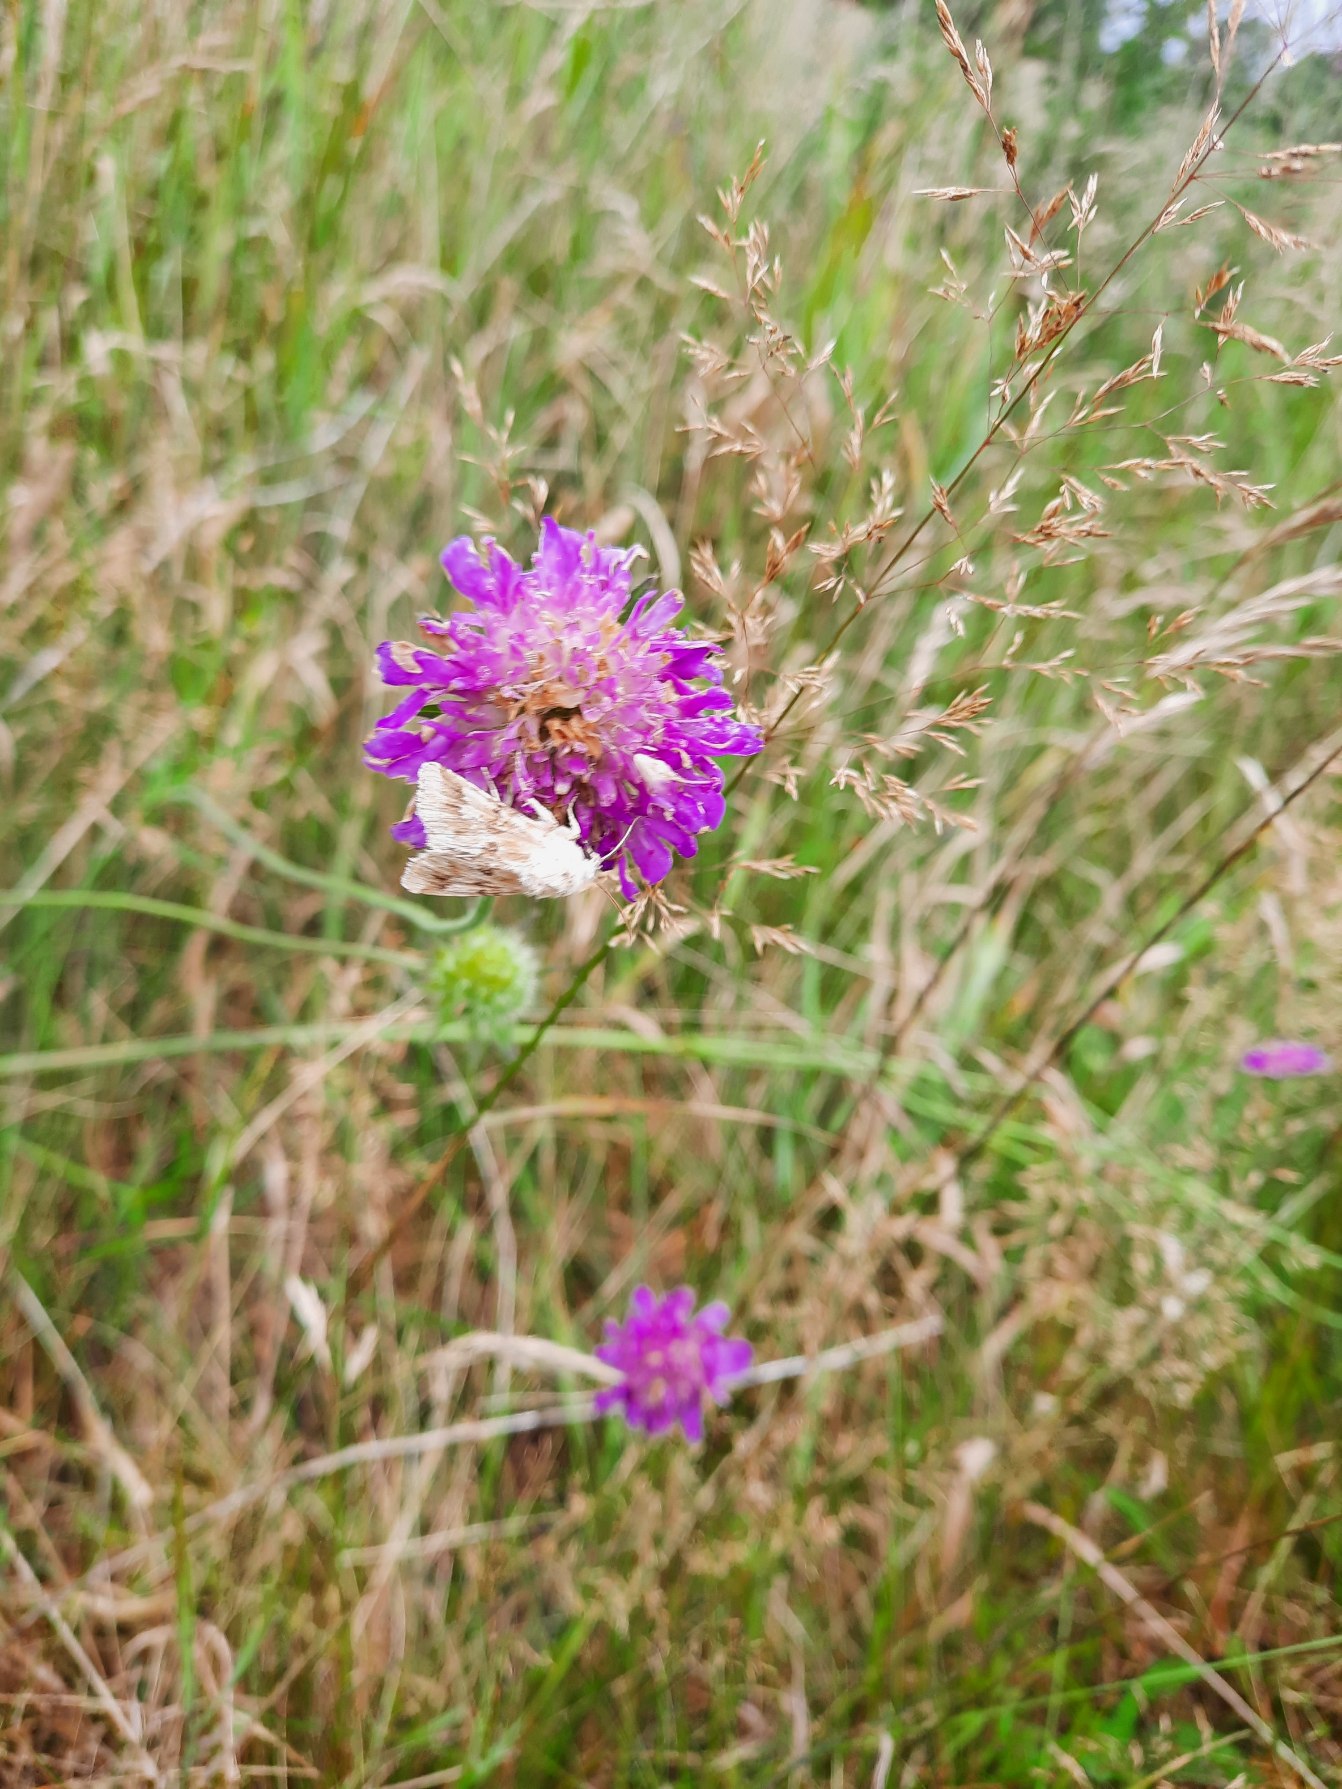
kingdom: Plantae
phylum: Tracheophyta
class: Magnoliopsida
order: Dipsacales
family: Caprifoliaceae
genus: Knautia
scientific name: Knautia arvensis
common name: Blåhat
